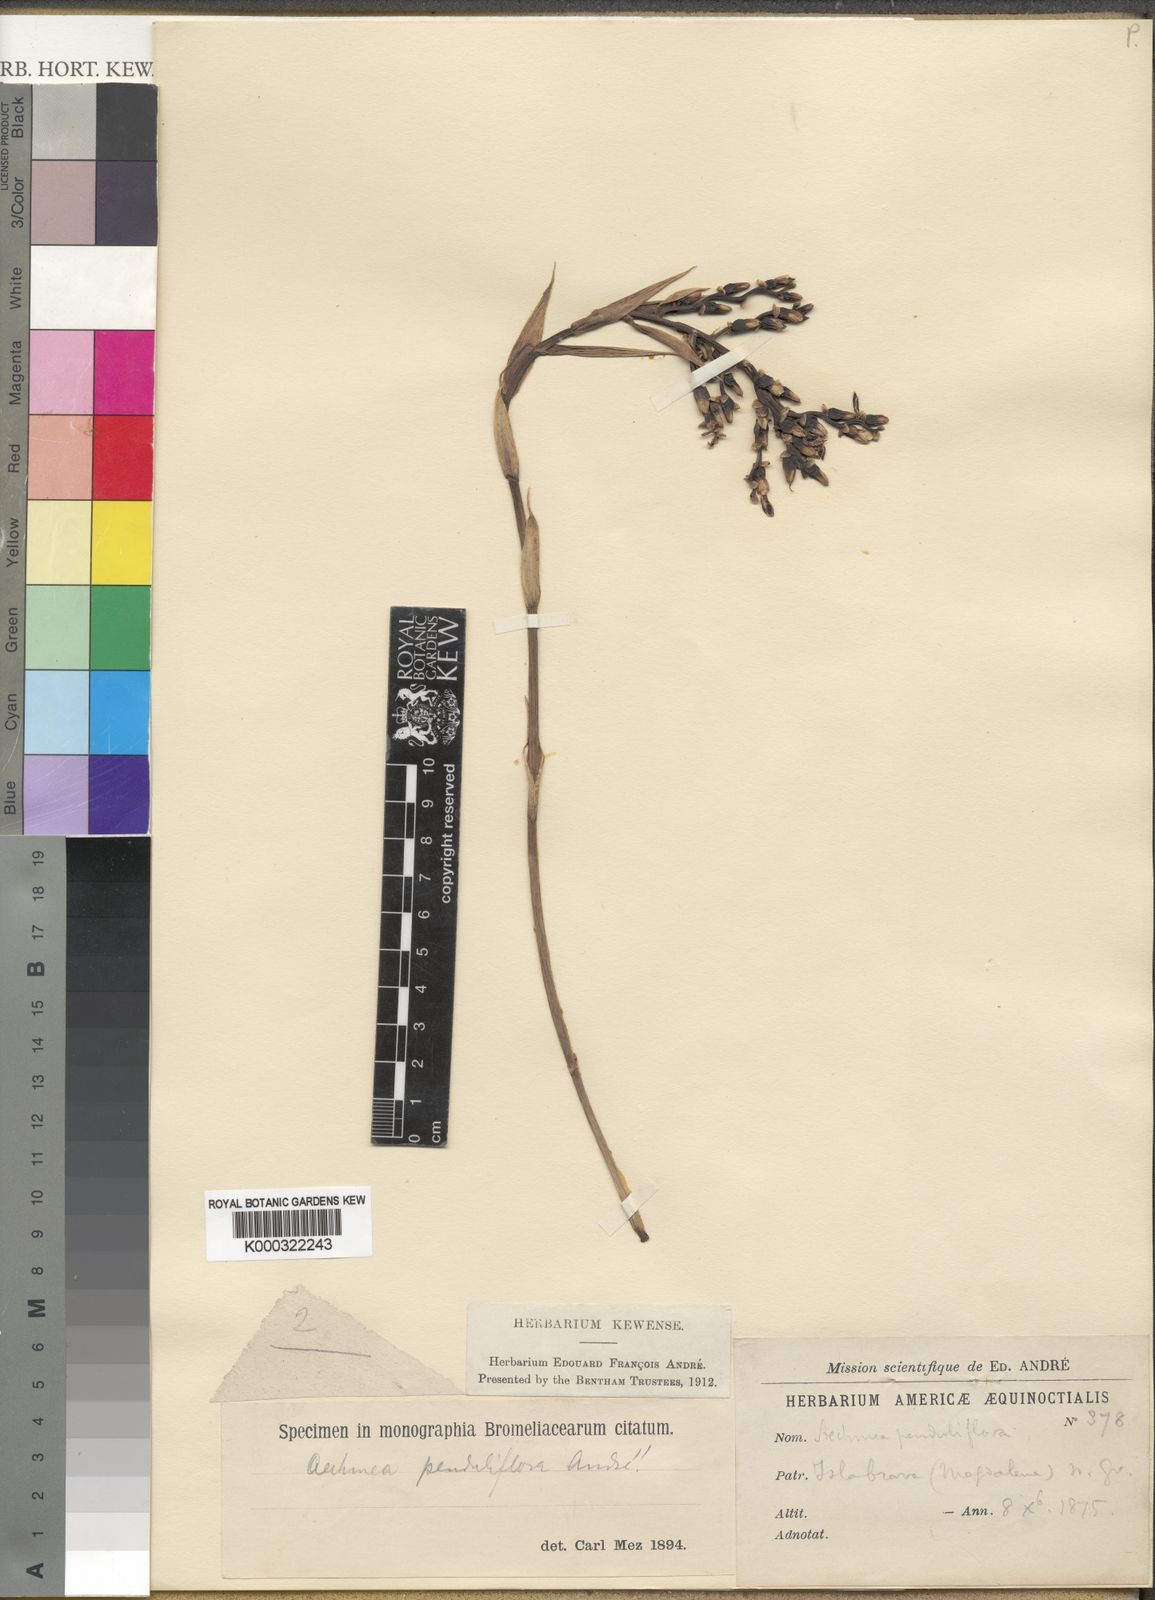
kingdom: Plantae
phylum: Tracheophyta
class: Liliopsida
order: Poales
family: Bromeliaceae
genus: Aechmea
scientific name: Aechmea
